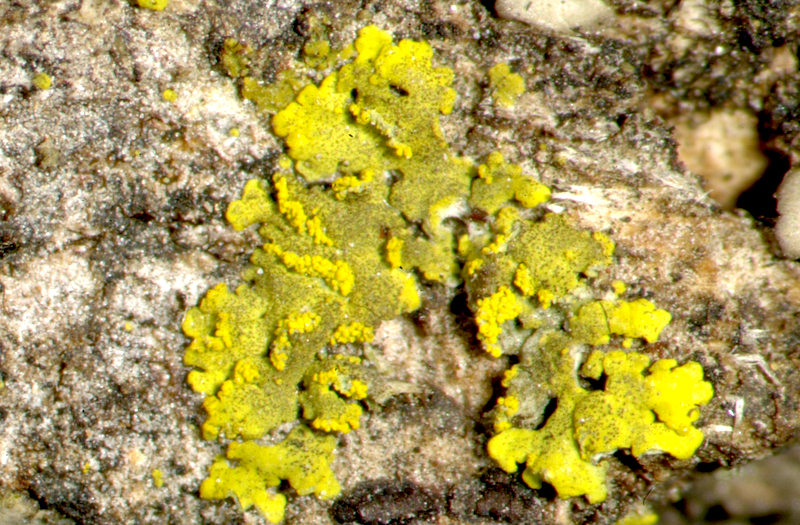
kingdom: Fungi
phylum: Ascomycota
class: Candelariomycetes
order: Candelariales
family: Candelariaceae
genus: Candelaria
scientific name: Candelaria concolor
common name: Candleflame lichen
